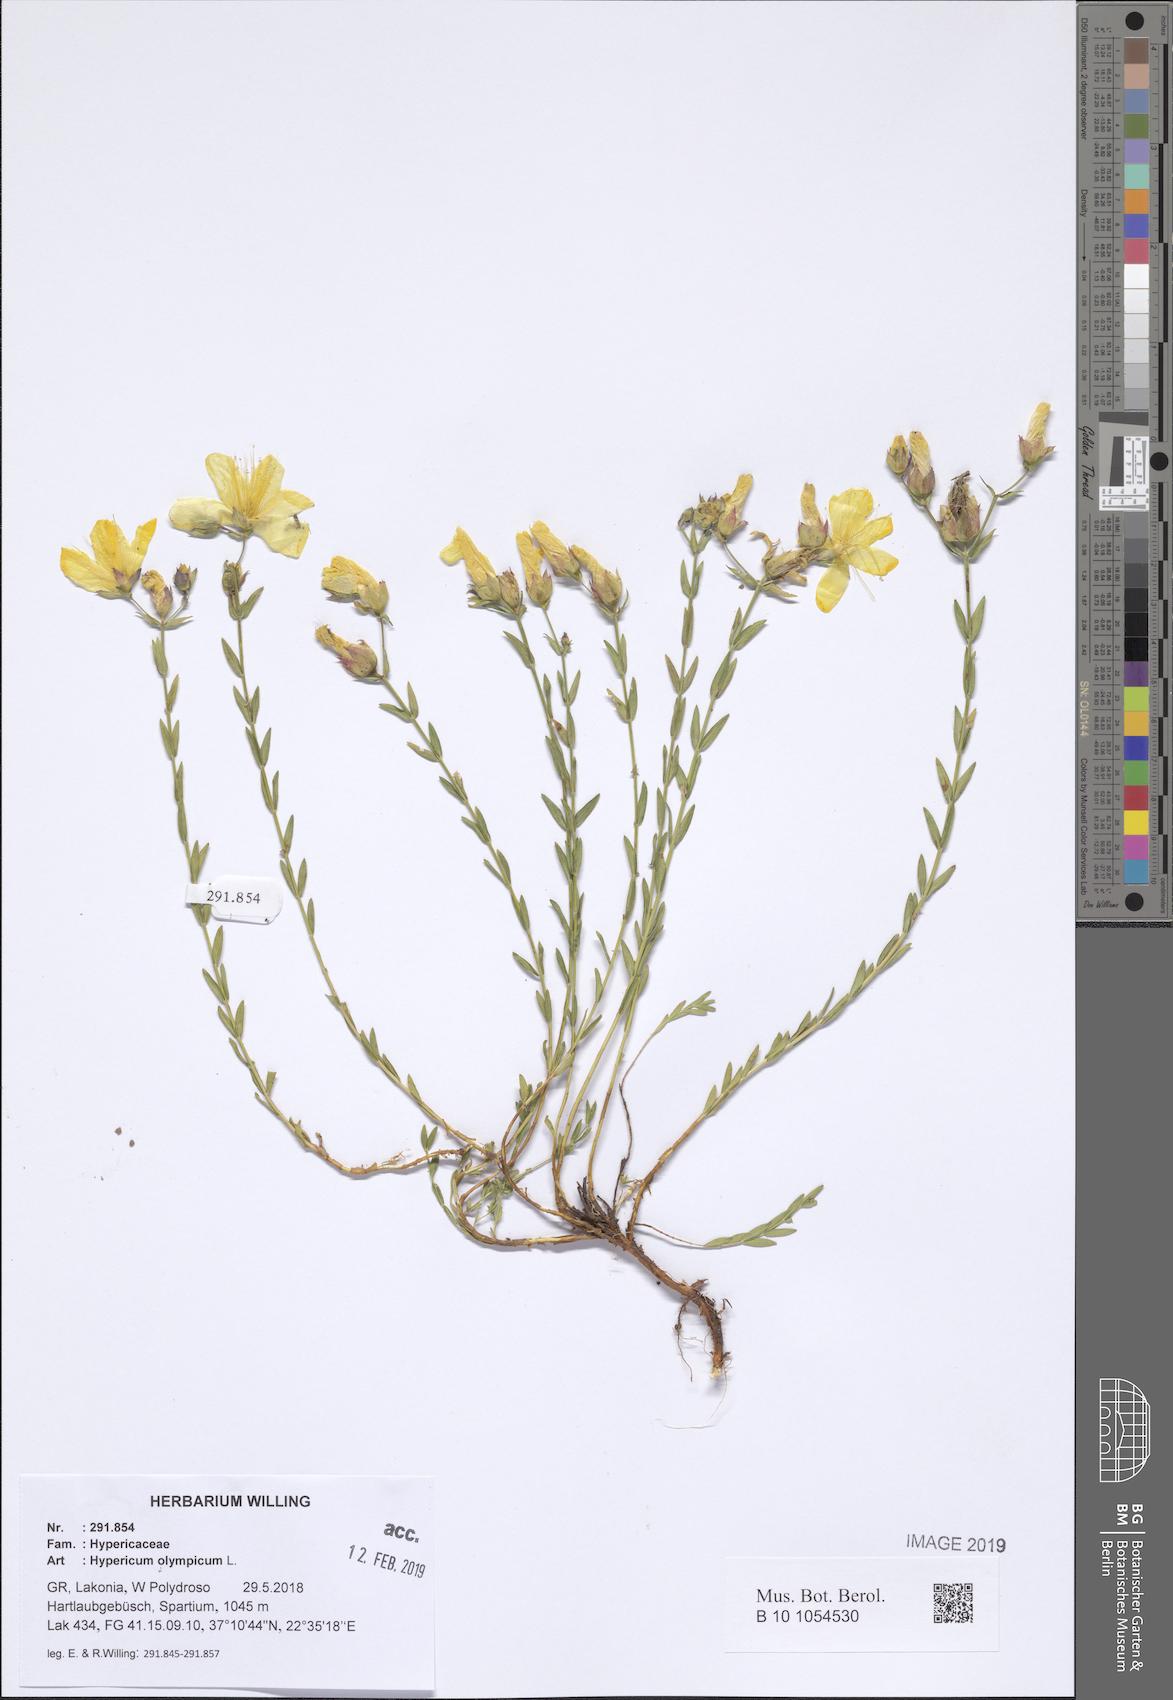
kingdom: Plantae
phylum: Tracheophyta
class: Magnoliopsida
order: Malpighiales
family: Hypericaceae
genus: Hypericum
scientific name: Hypericum olympicum
